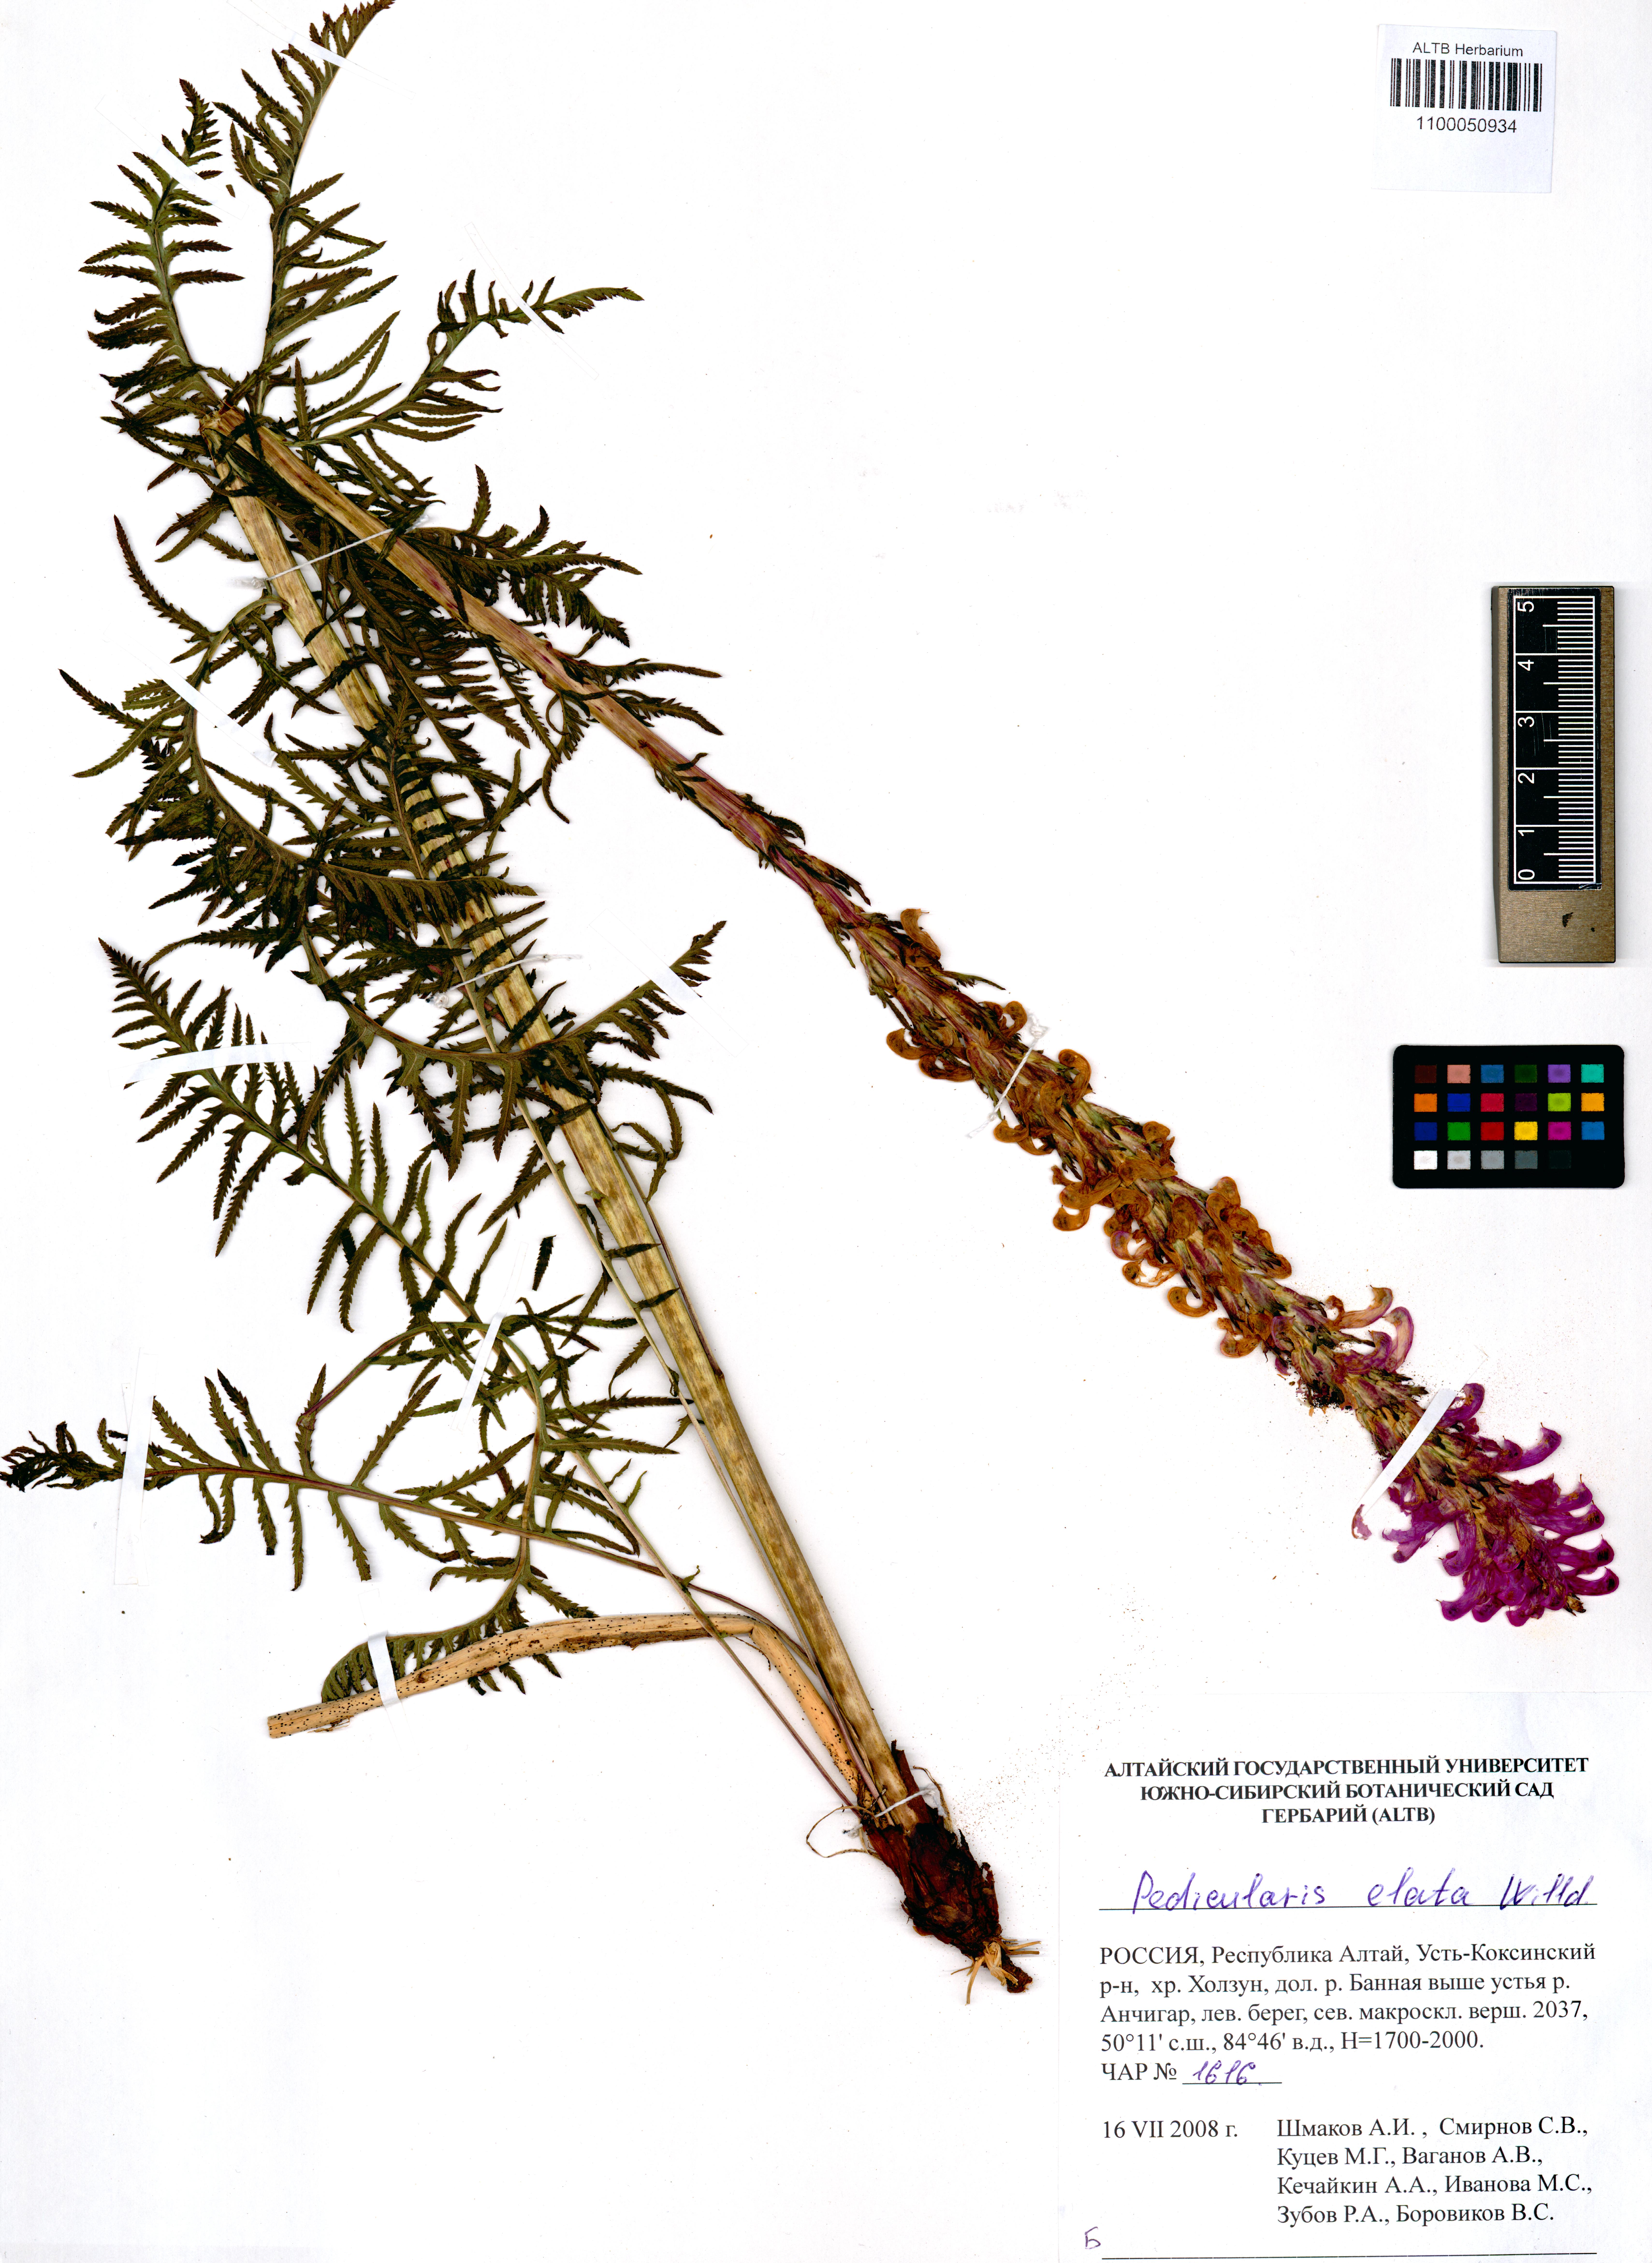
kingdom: Plantae
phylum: Tracheophyta
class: Magnoliopsida
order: Lamiales
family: Orobanchaceae
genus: Pedicularis
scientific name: Pedicularis elata
